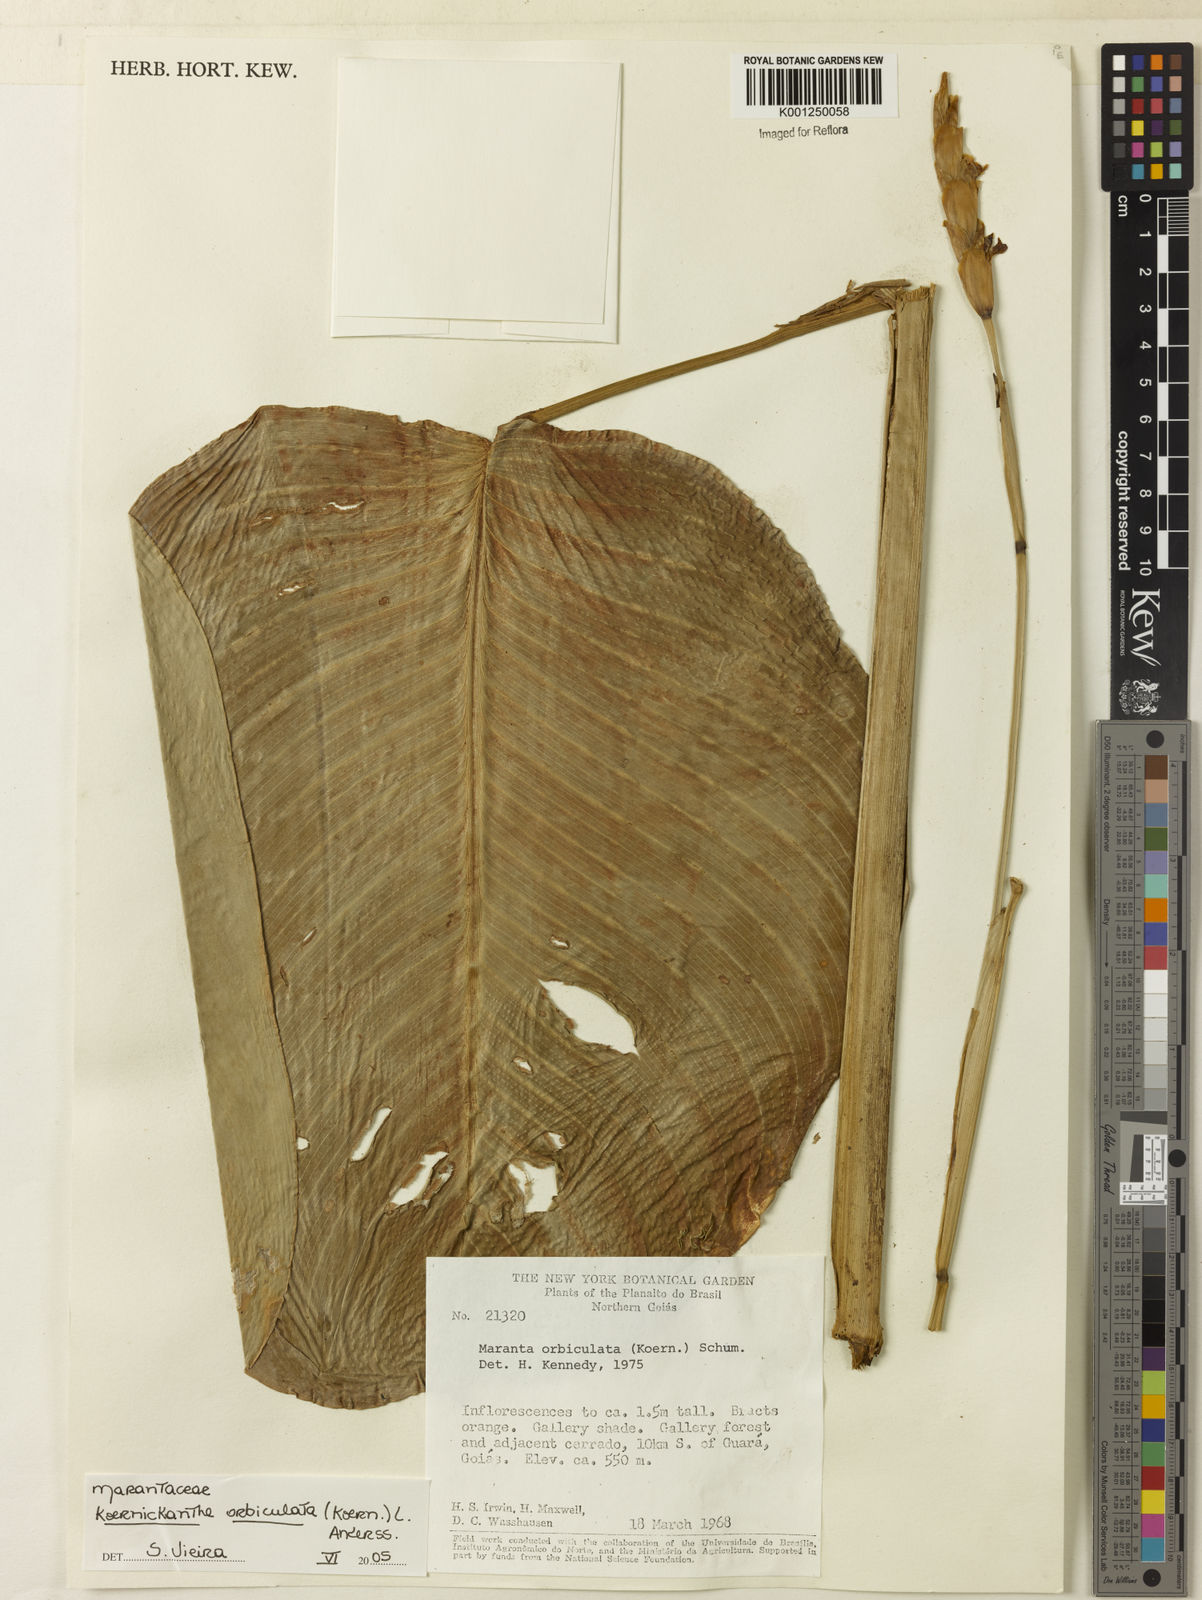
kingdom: Plantae
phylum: Tracheophyta
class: Liliopsida
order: Zingiberales
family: Marantaceae
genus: Koernickanthe
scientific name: Koernickanthe orbiculata
